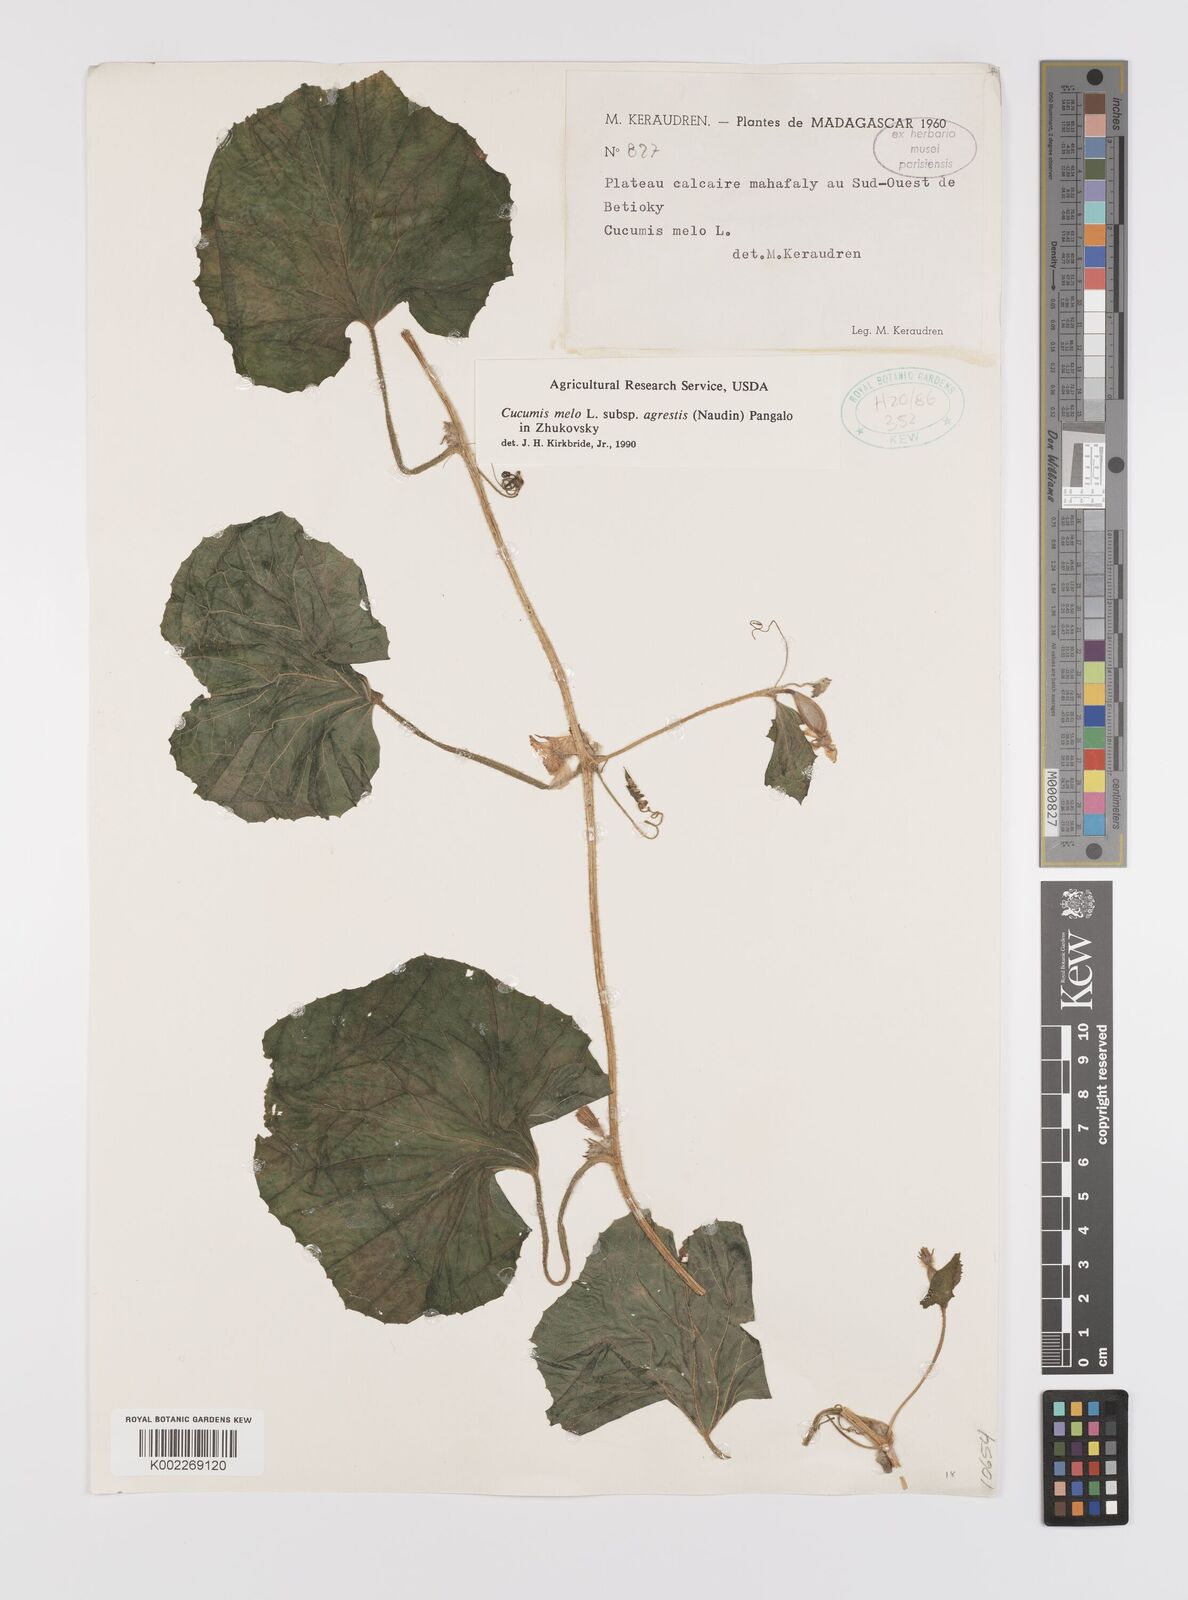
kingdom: Plantae
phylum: Tracheophyta
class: Magnoliopsida
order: Cucurbitales
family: Cucurbitaceae
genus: Cucumis
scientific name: Cucumis melo
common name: Melon
